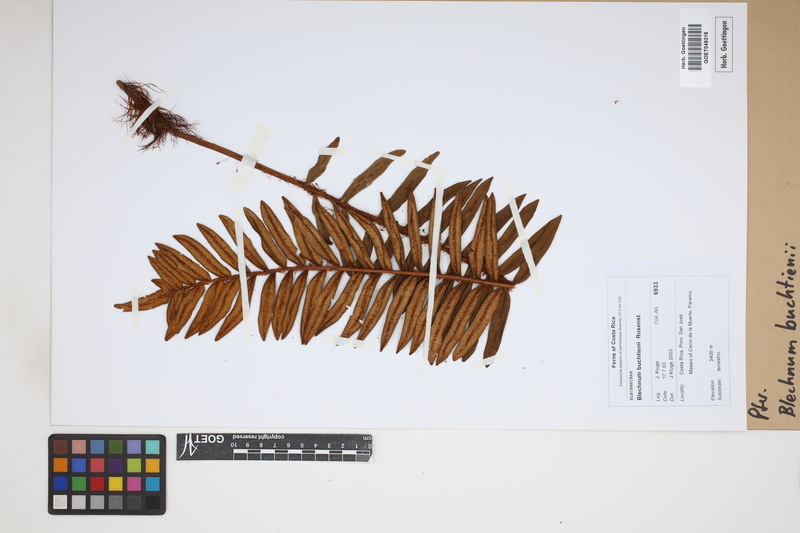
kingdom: Plantae
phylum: Tracheophyta
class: Polypodiopsida
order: Polypodiales
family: Blechnaceae
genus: Lomariocycas
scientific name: Lomariocycas aurata
